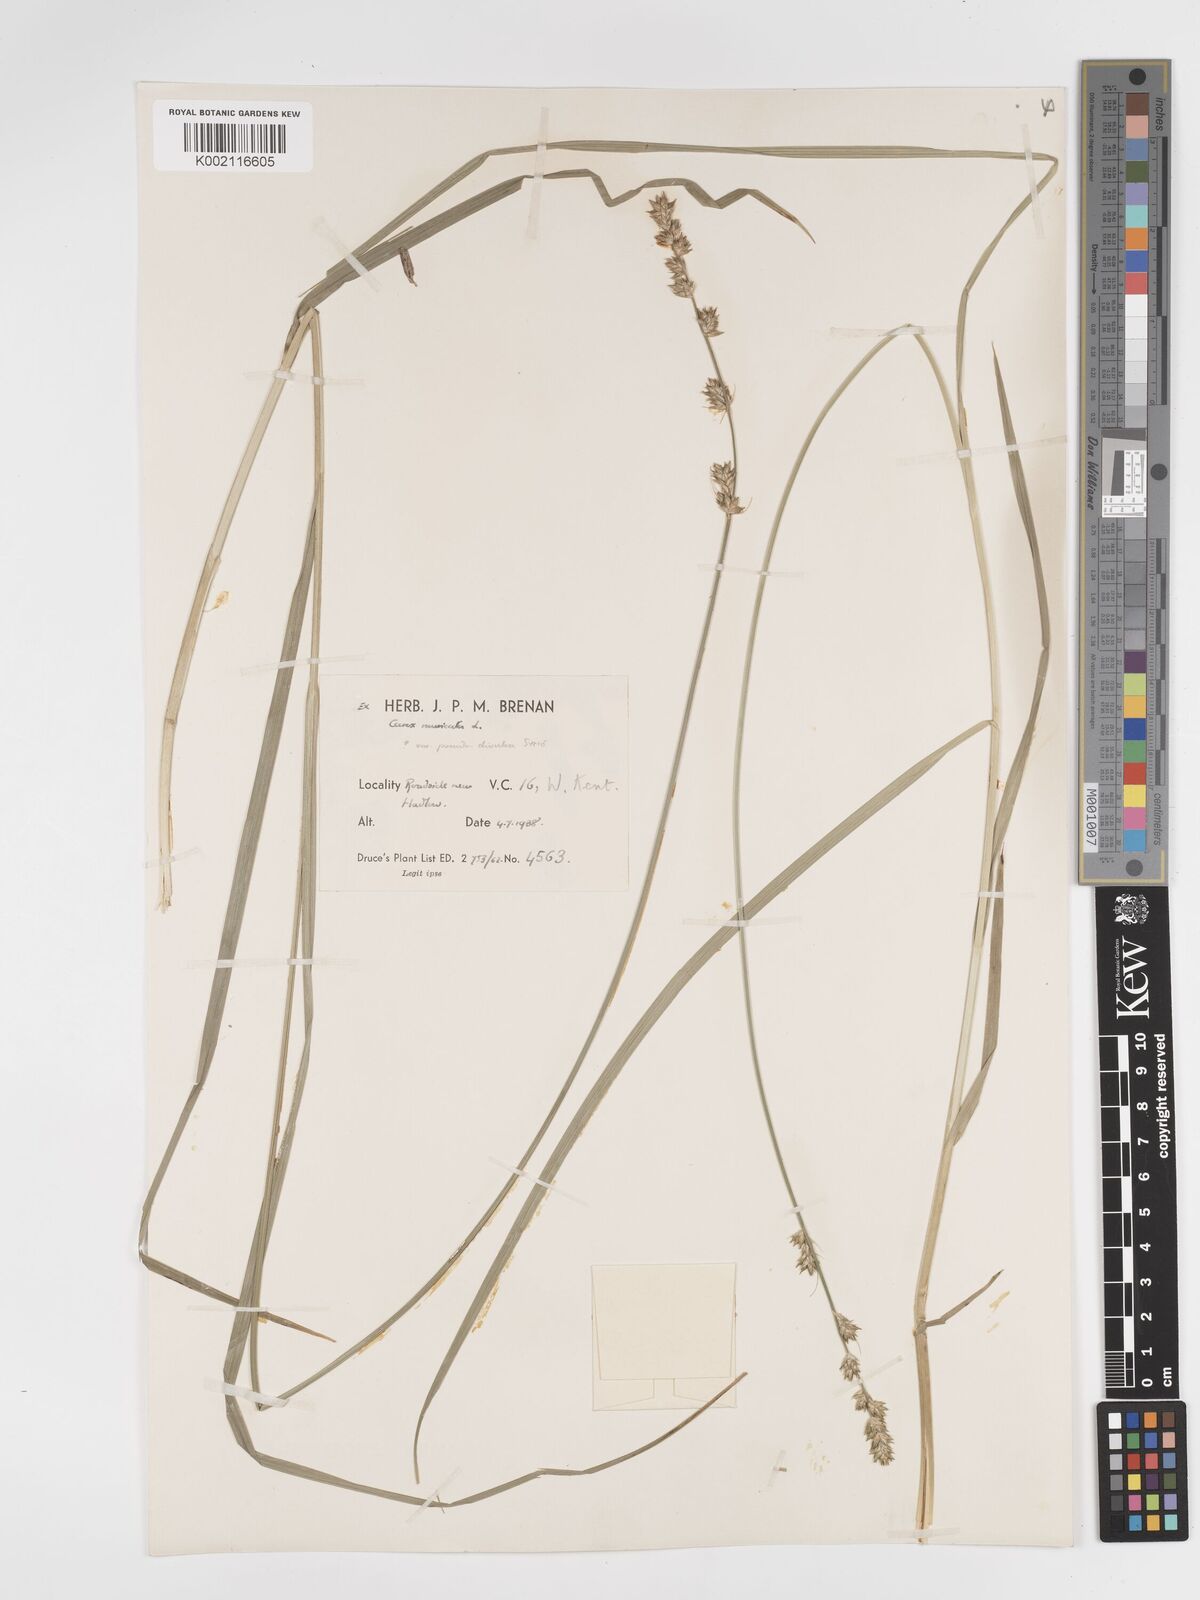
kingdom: Plantae
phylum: Tracheophyta
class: Liliopsida
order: Poales
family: Cyperaceae
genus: Carex
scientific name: Carex divulsa
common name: Grassland sedge
